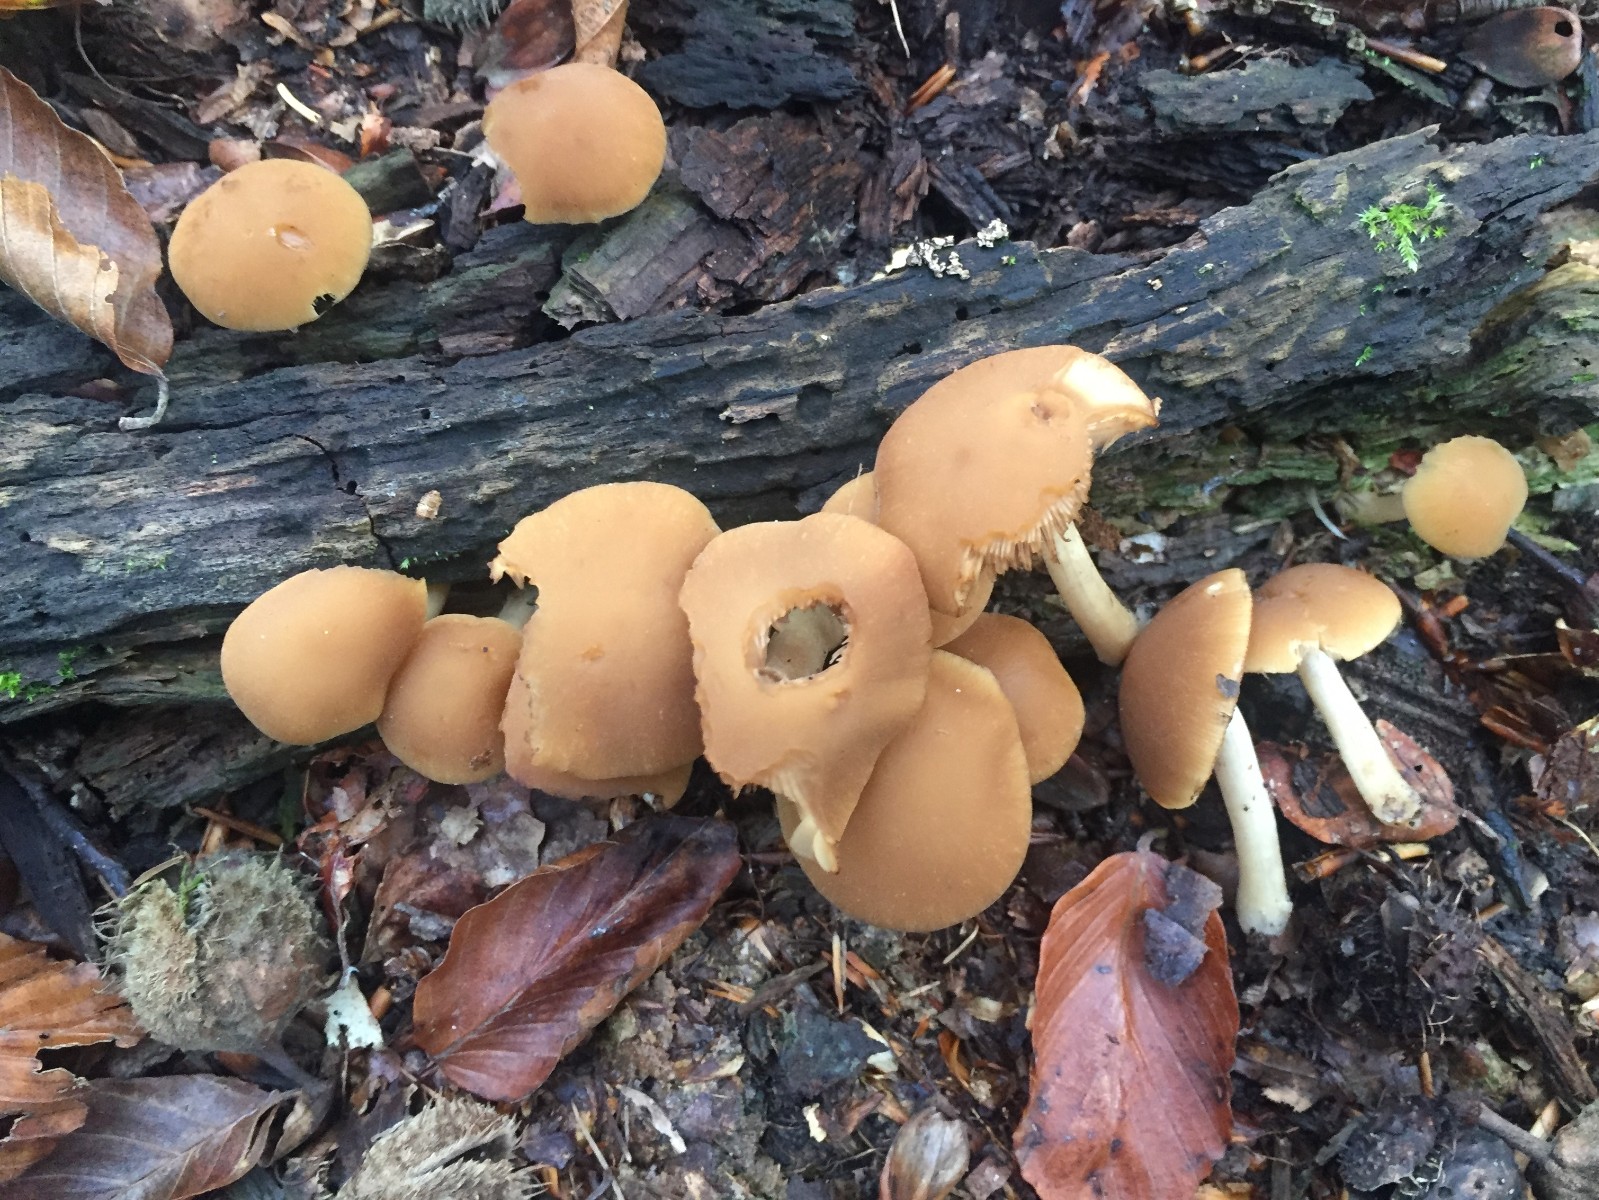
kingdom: Fungi
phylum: Basidiomycota
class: Agaricomycetes
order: Agaricales
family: Psathyrellaceae
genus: Psathyrella
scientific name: Psathyrella piluliformis
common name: lysstokket mørkhat
